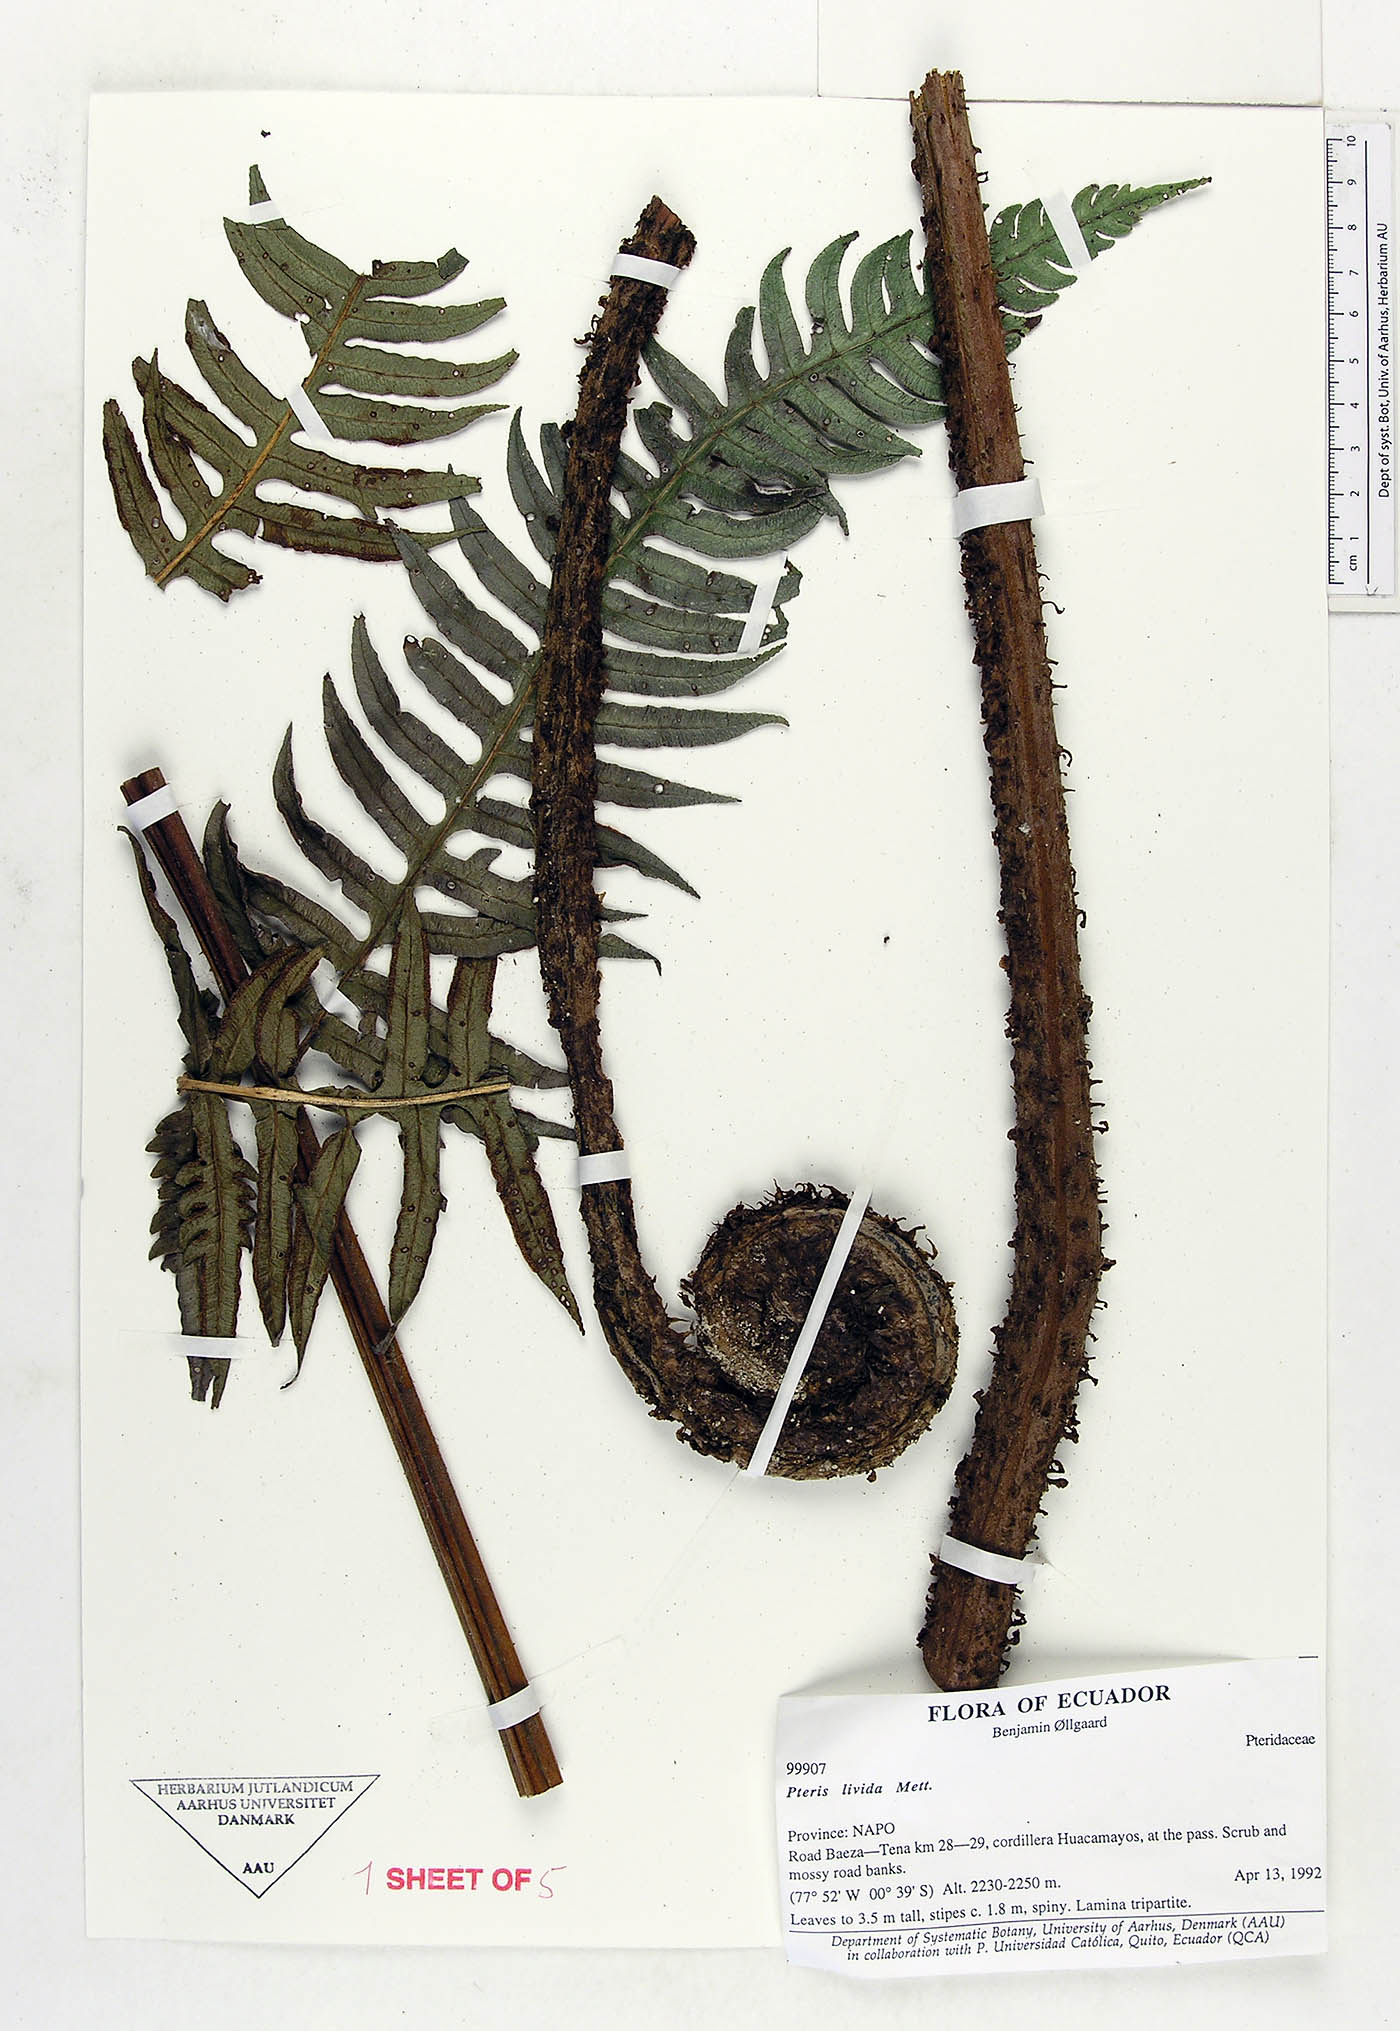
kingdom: Plantae
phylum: Tracheophyta
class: Polypodiopsida
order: Polypodiales
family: Pteridaceae
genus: Pteris
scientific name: Pteris livida
